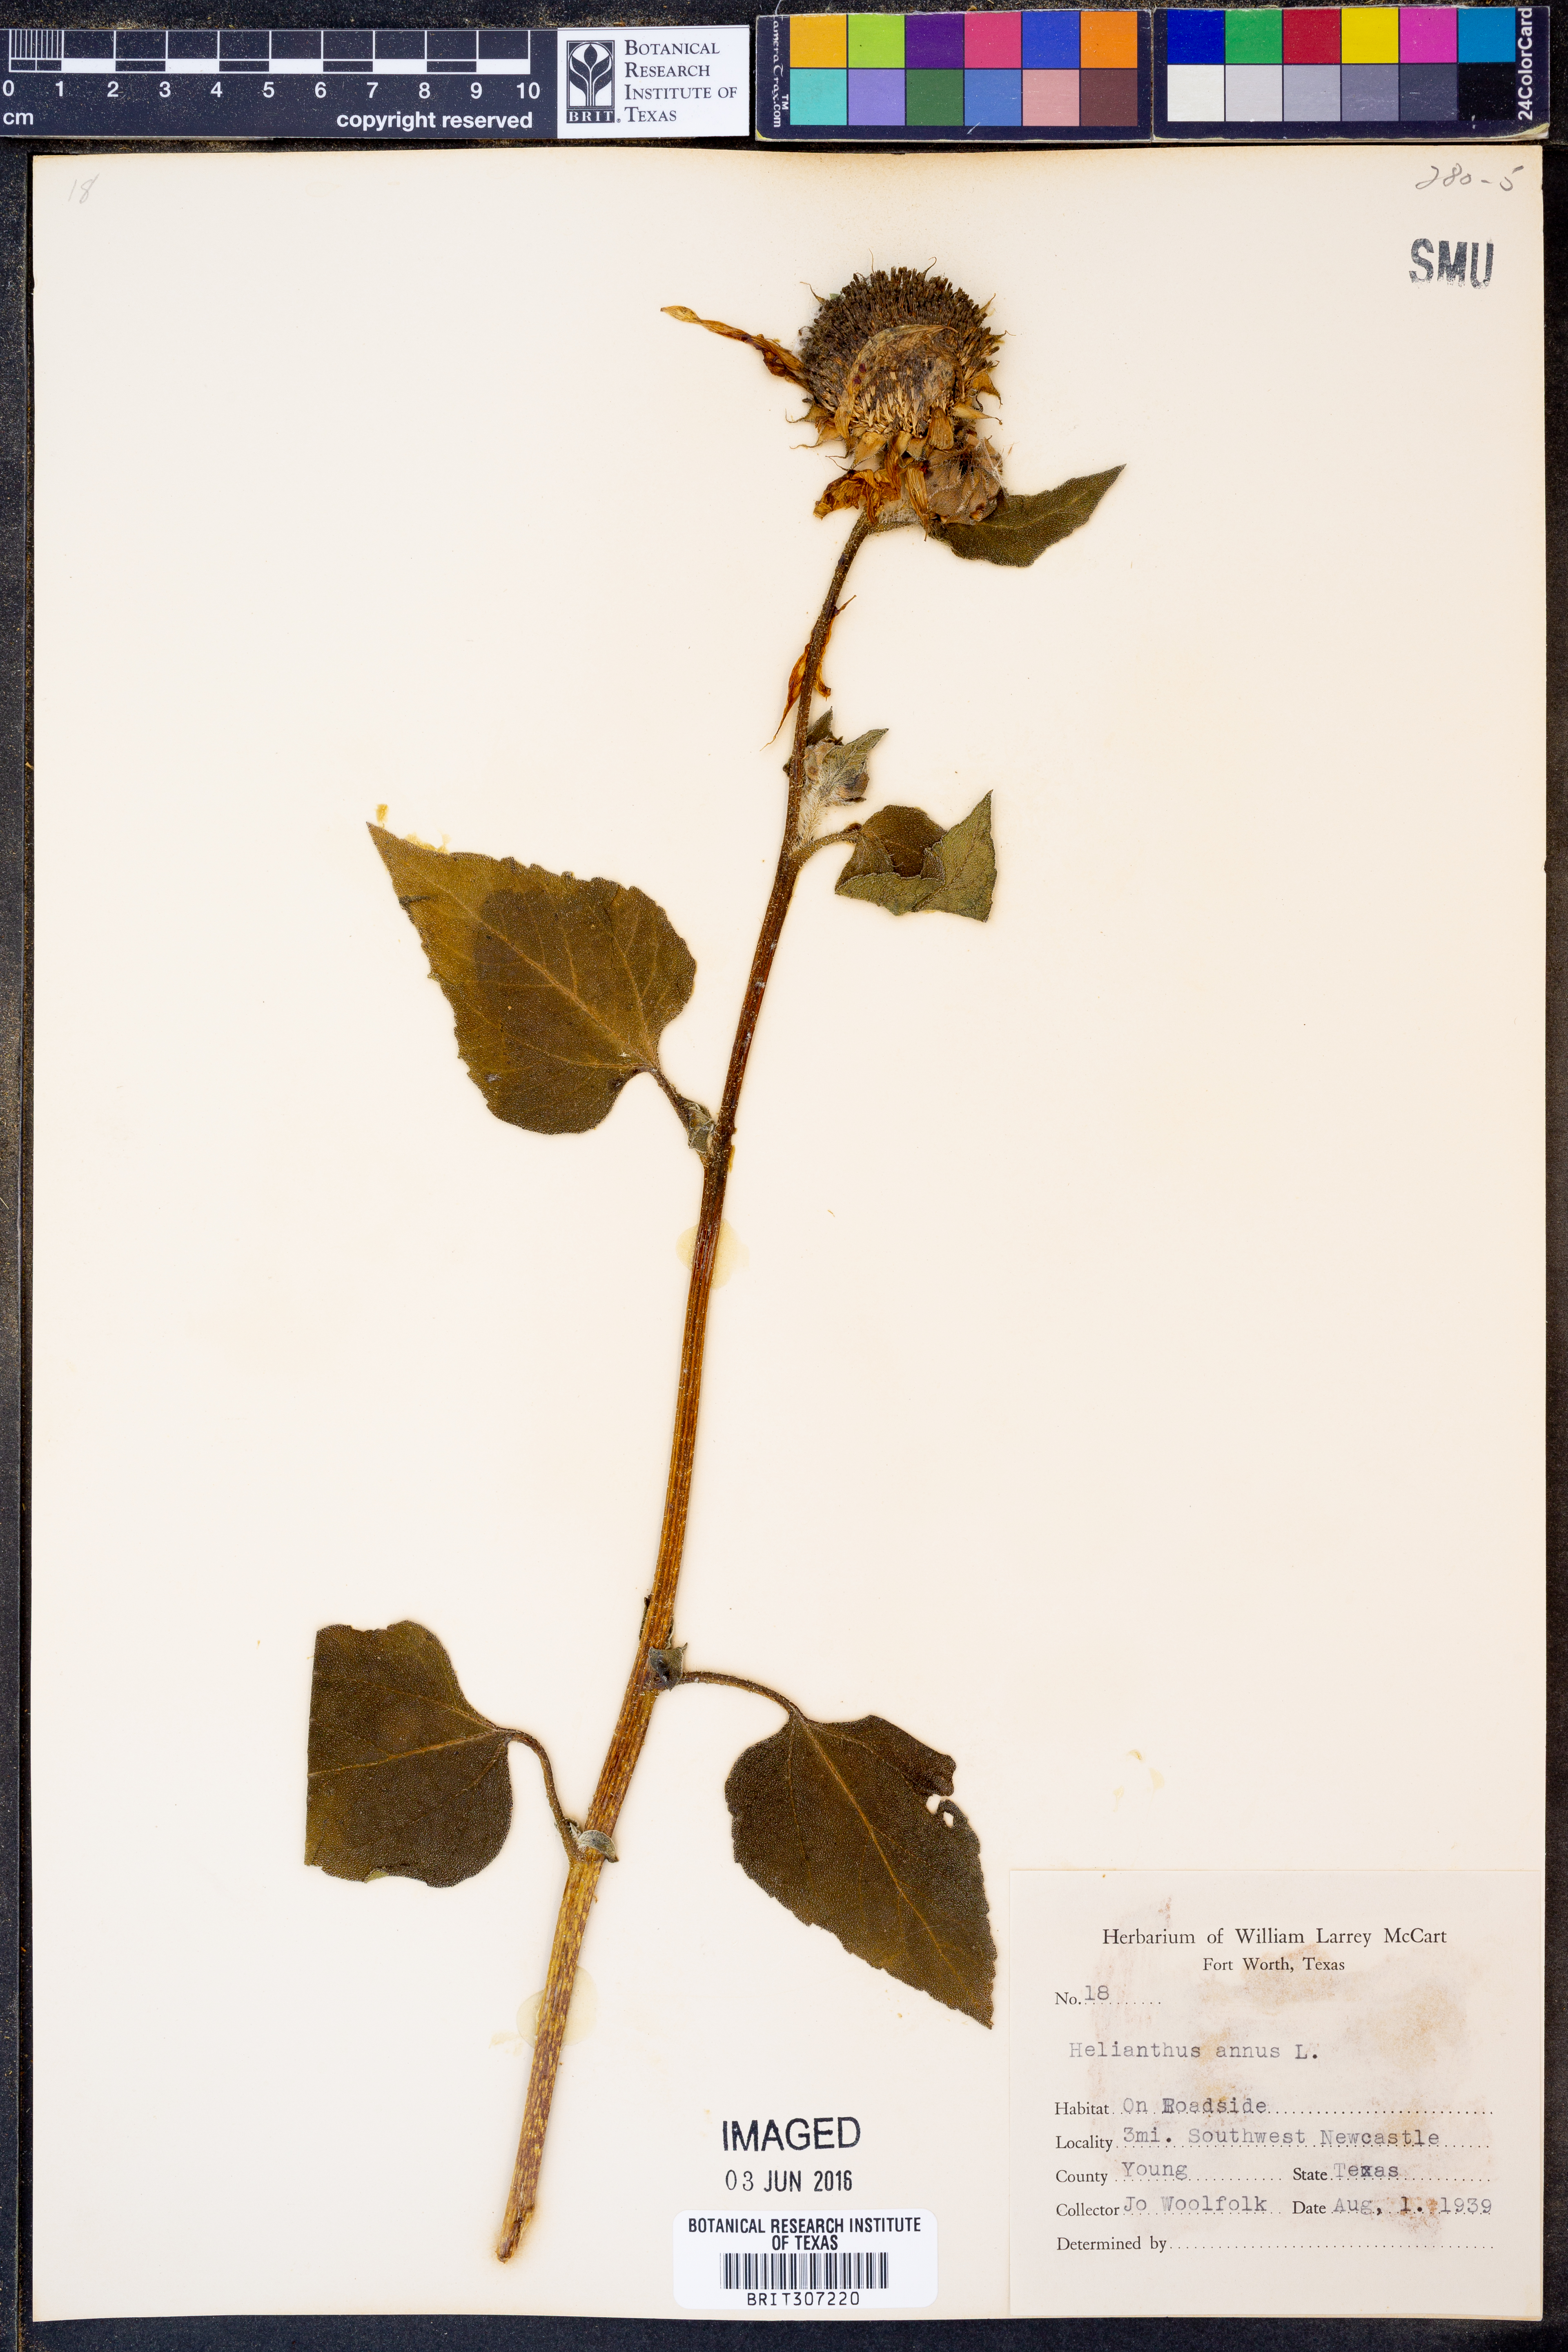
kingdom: Plantae
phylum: Tracheophyta
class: Magnoliopsida
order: Asterales
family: Asteraceae
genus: Helianthus
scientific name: Helianthus annuus
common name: Sunflower
